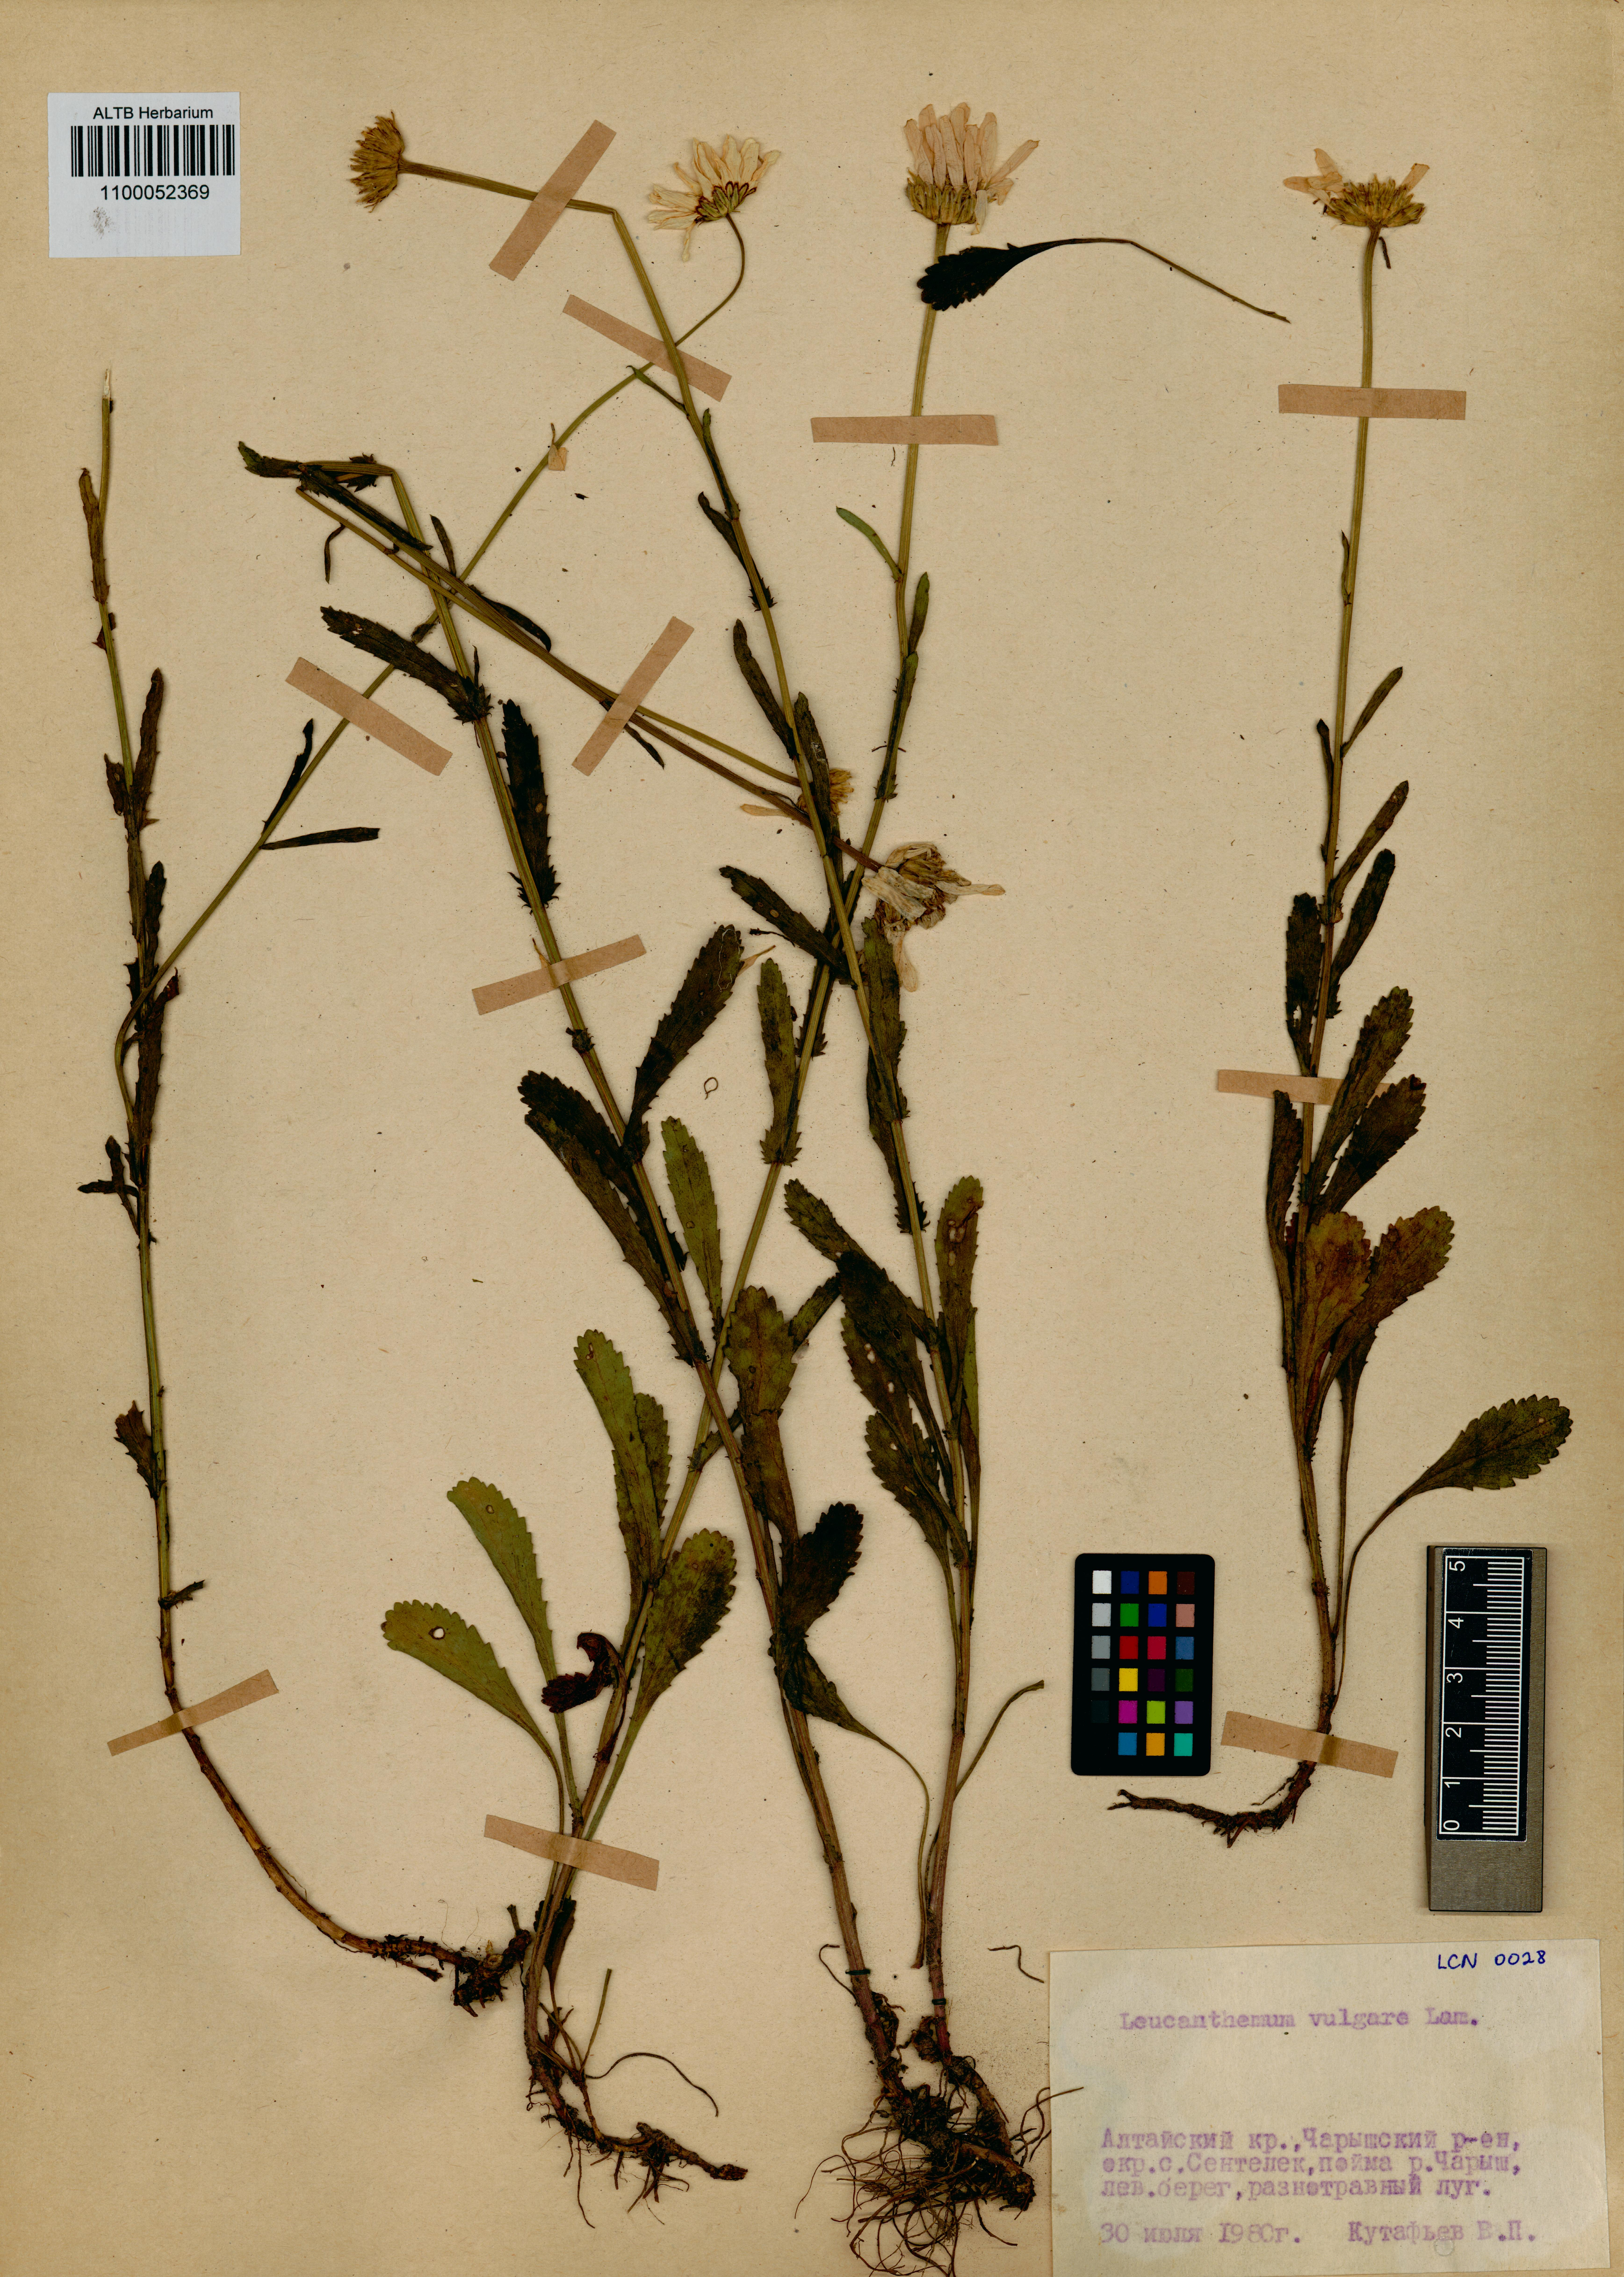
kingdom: Plantae
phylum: Tracheophyta
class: Magnoliopsida
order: Asterales
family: Asteraceae
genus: Leucanthemum
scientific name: Leucanthemum vulgare
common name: Oxeye daisy
